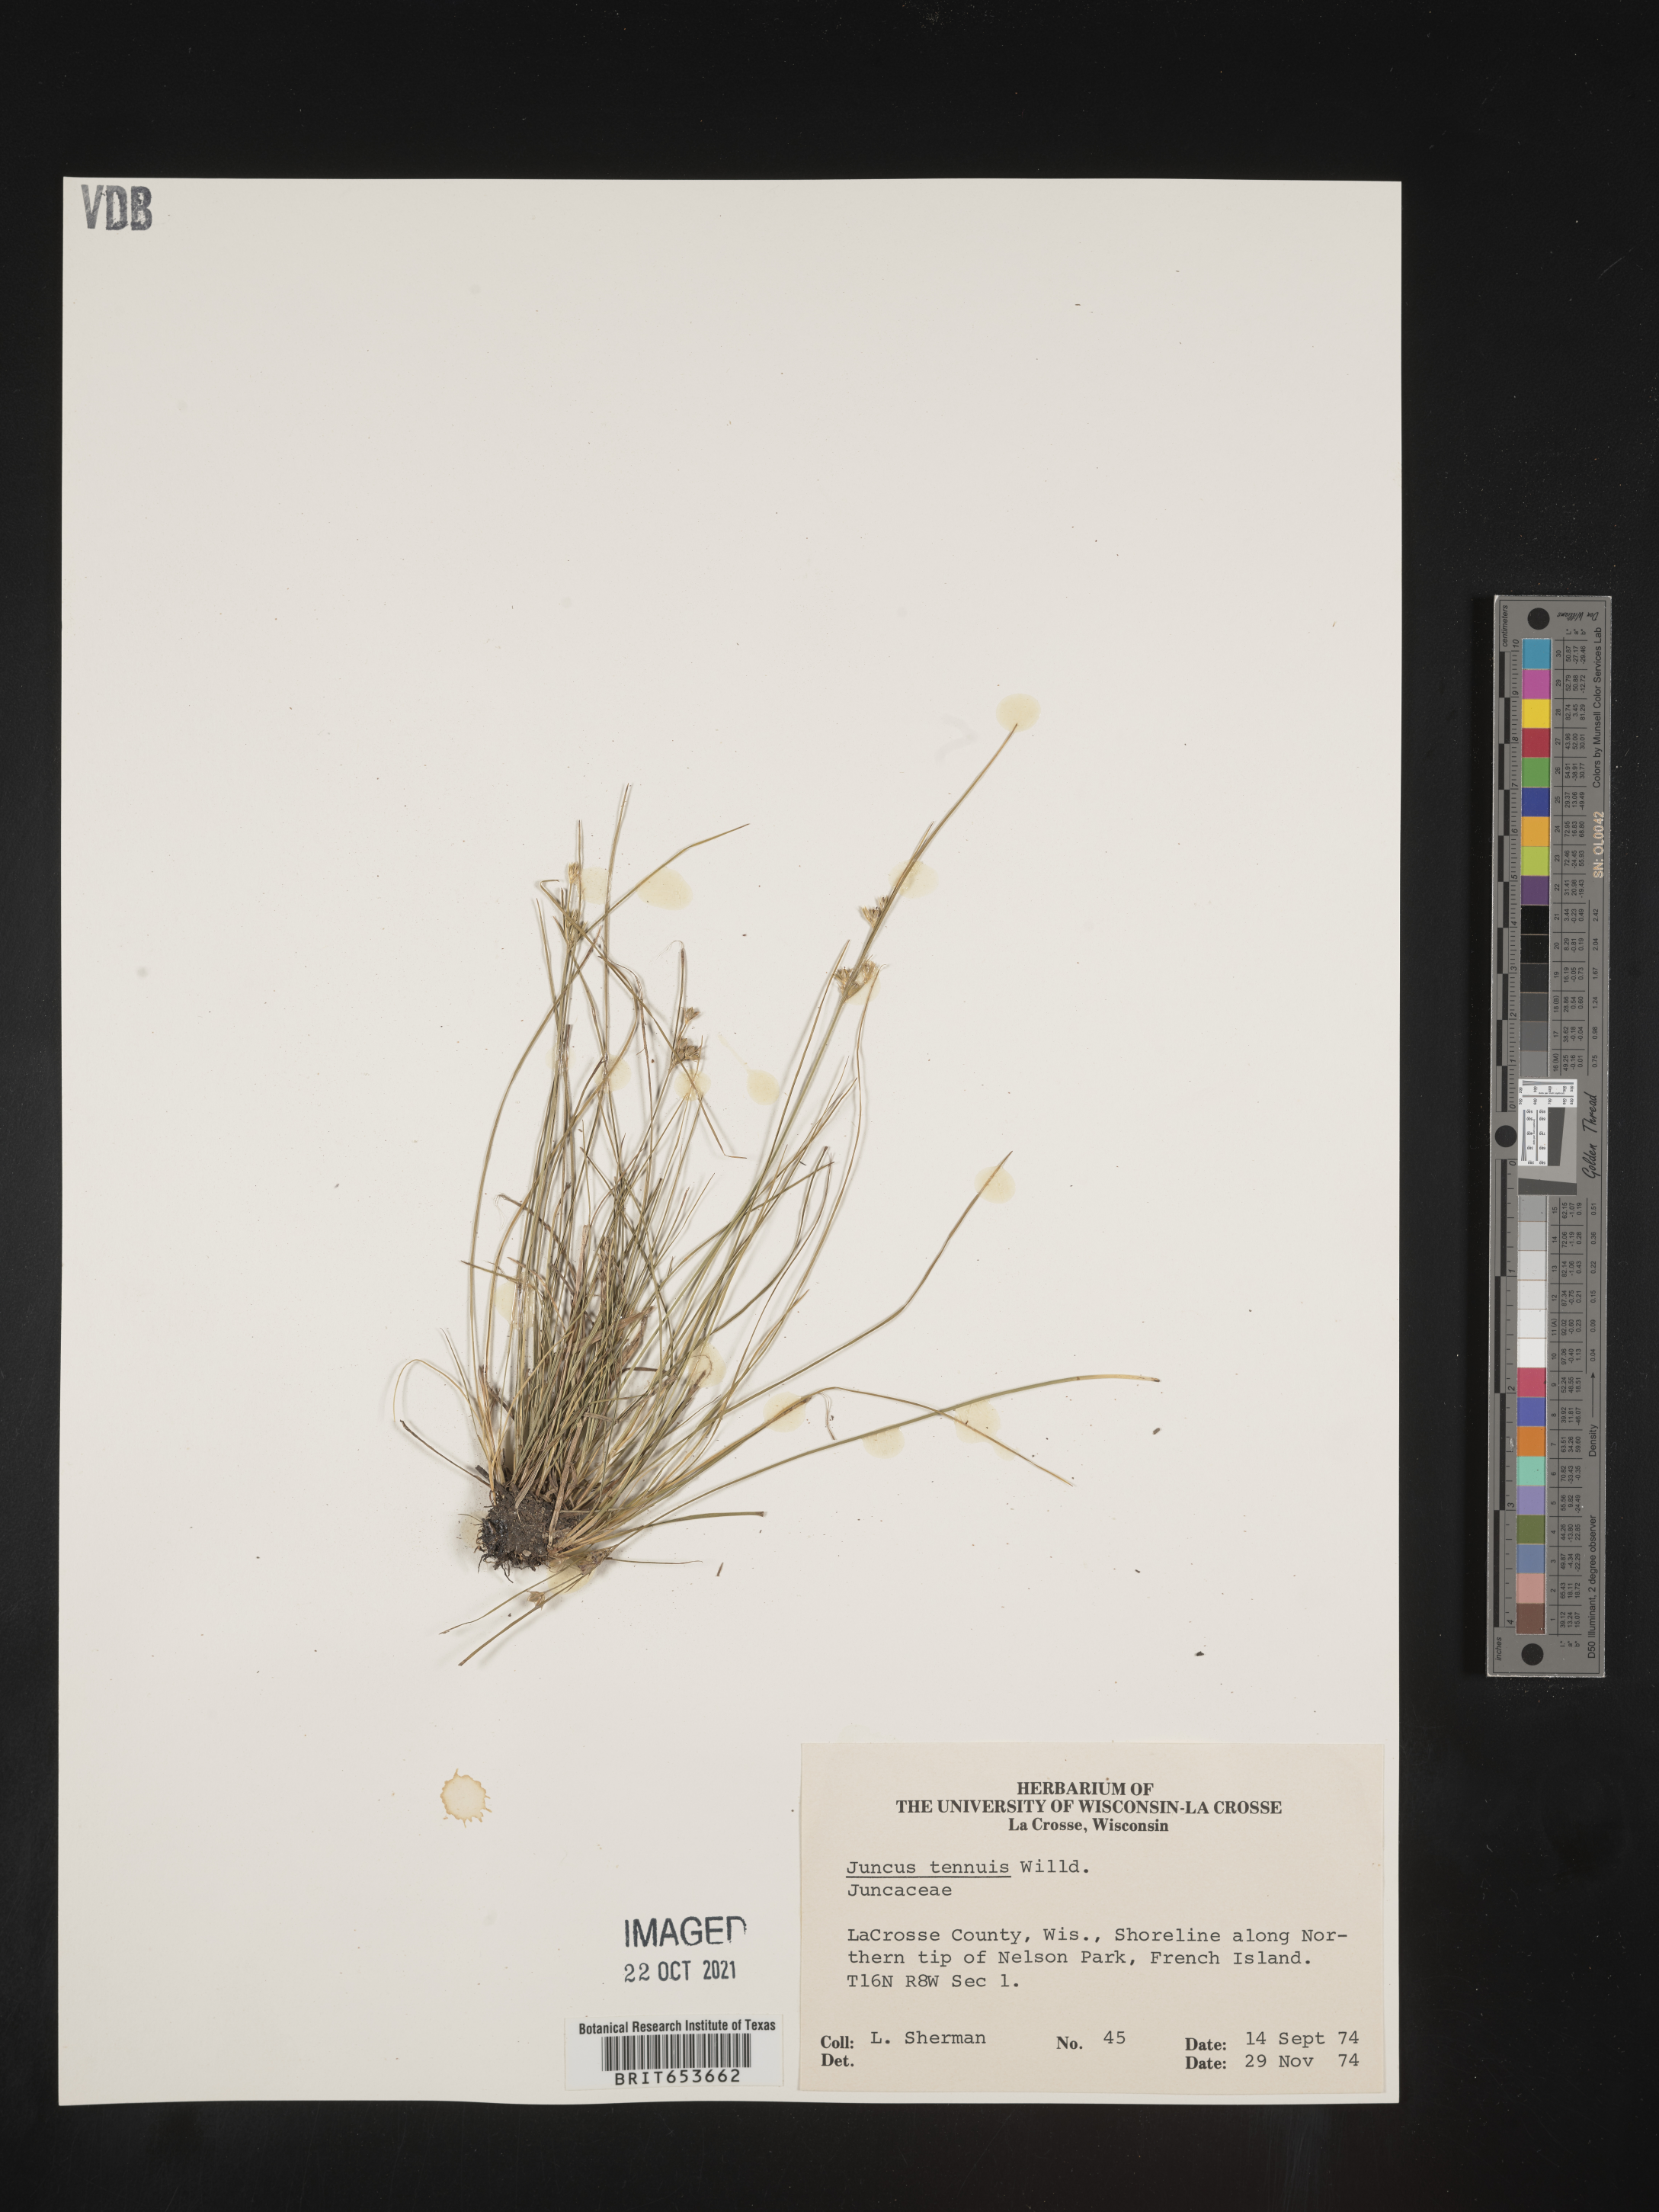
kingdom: Plantae
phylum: Tracheophyta
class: Liliopsida
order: Poales
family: Juncaceae
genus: Juncus
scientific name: Juncus tenuis
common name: Slender rush
